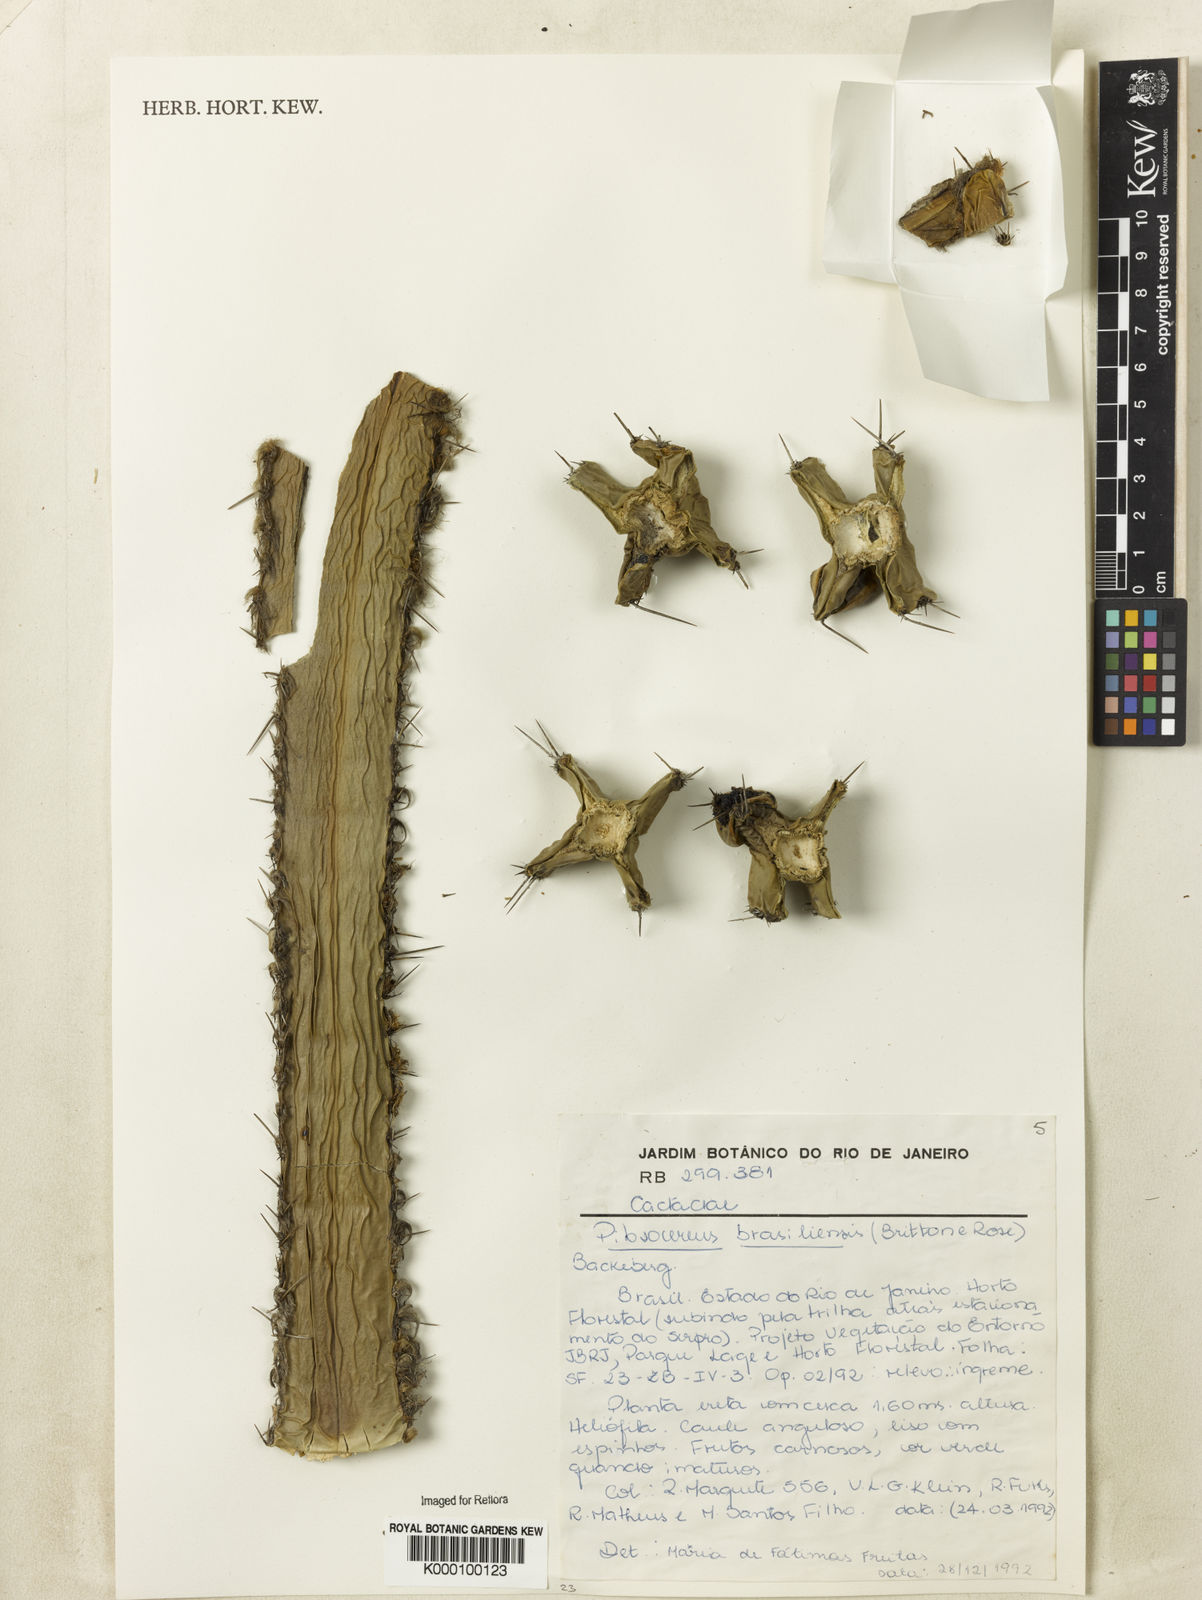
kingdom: Plantae
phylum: Tracheophyta
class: Magnoliopsida
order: Caryophyllales
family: Cactaceae
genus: Pilosocereus
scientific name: Pilosocereus brasiliensis
